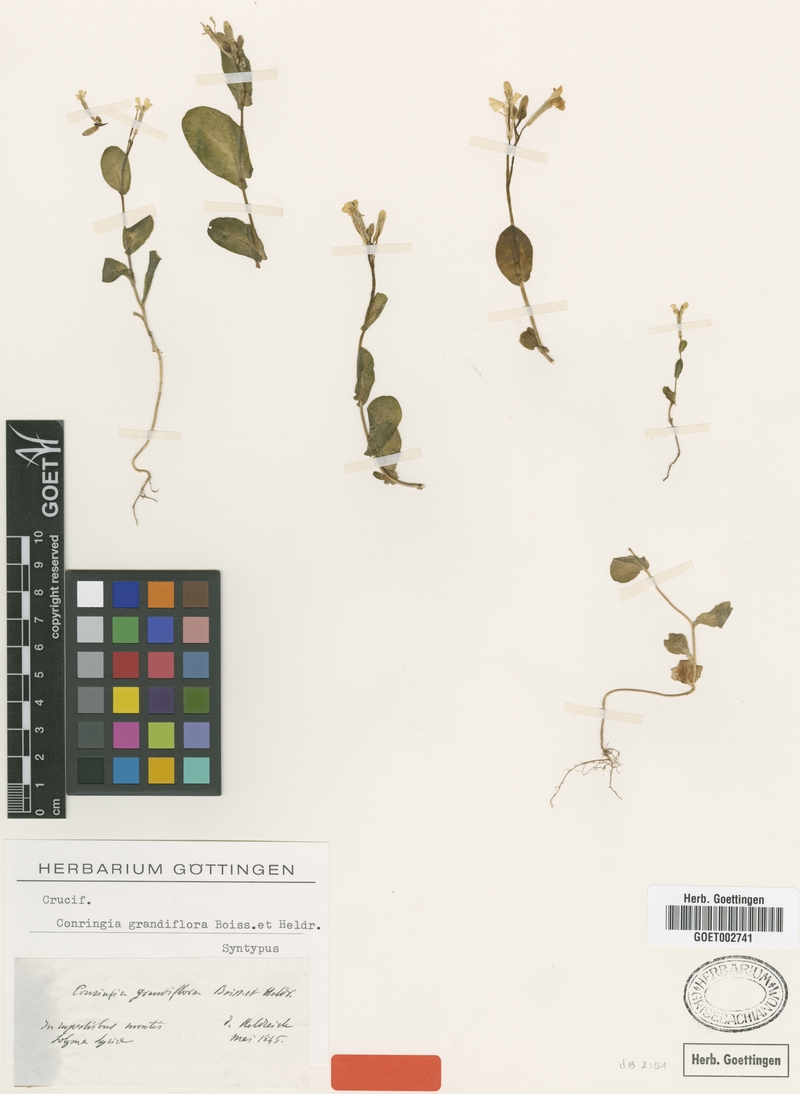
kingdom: Plantae
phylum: Tracheophyta
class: Magnoliopsida
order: Brassicales
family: Brassicaceae
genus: Conringia
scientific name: Conringia grandiflora
